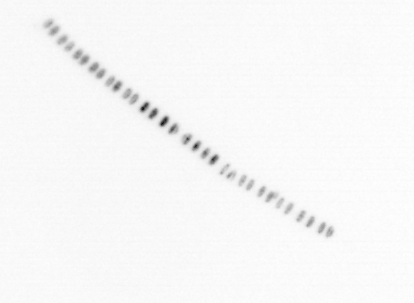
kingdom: Chromista
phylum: Ochrophyta
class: Bacillariophyceae
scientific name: Bacillariophyceae
